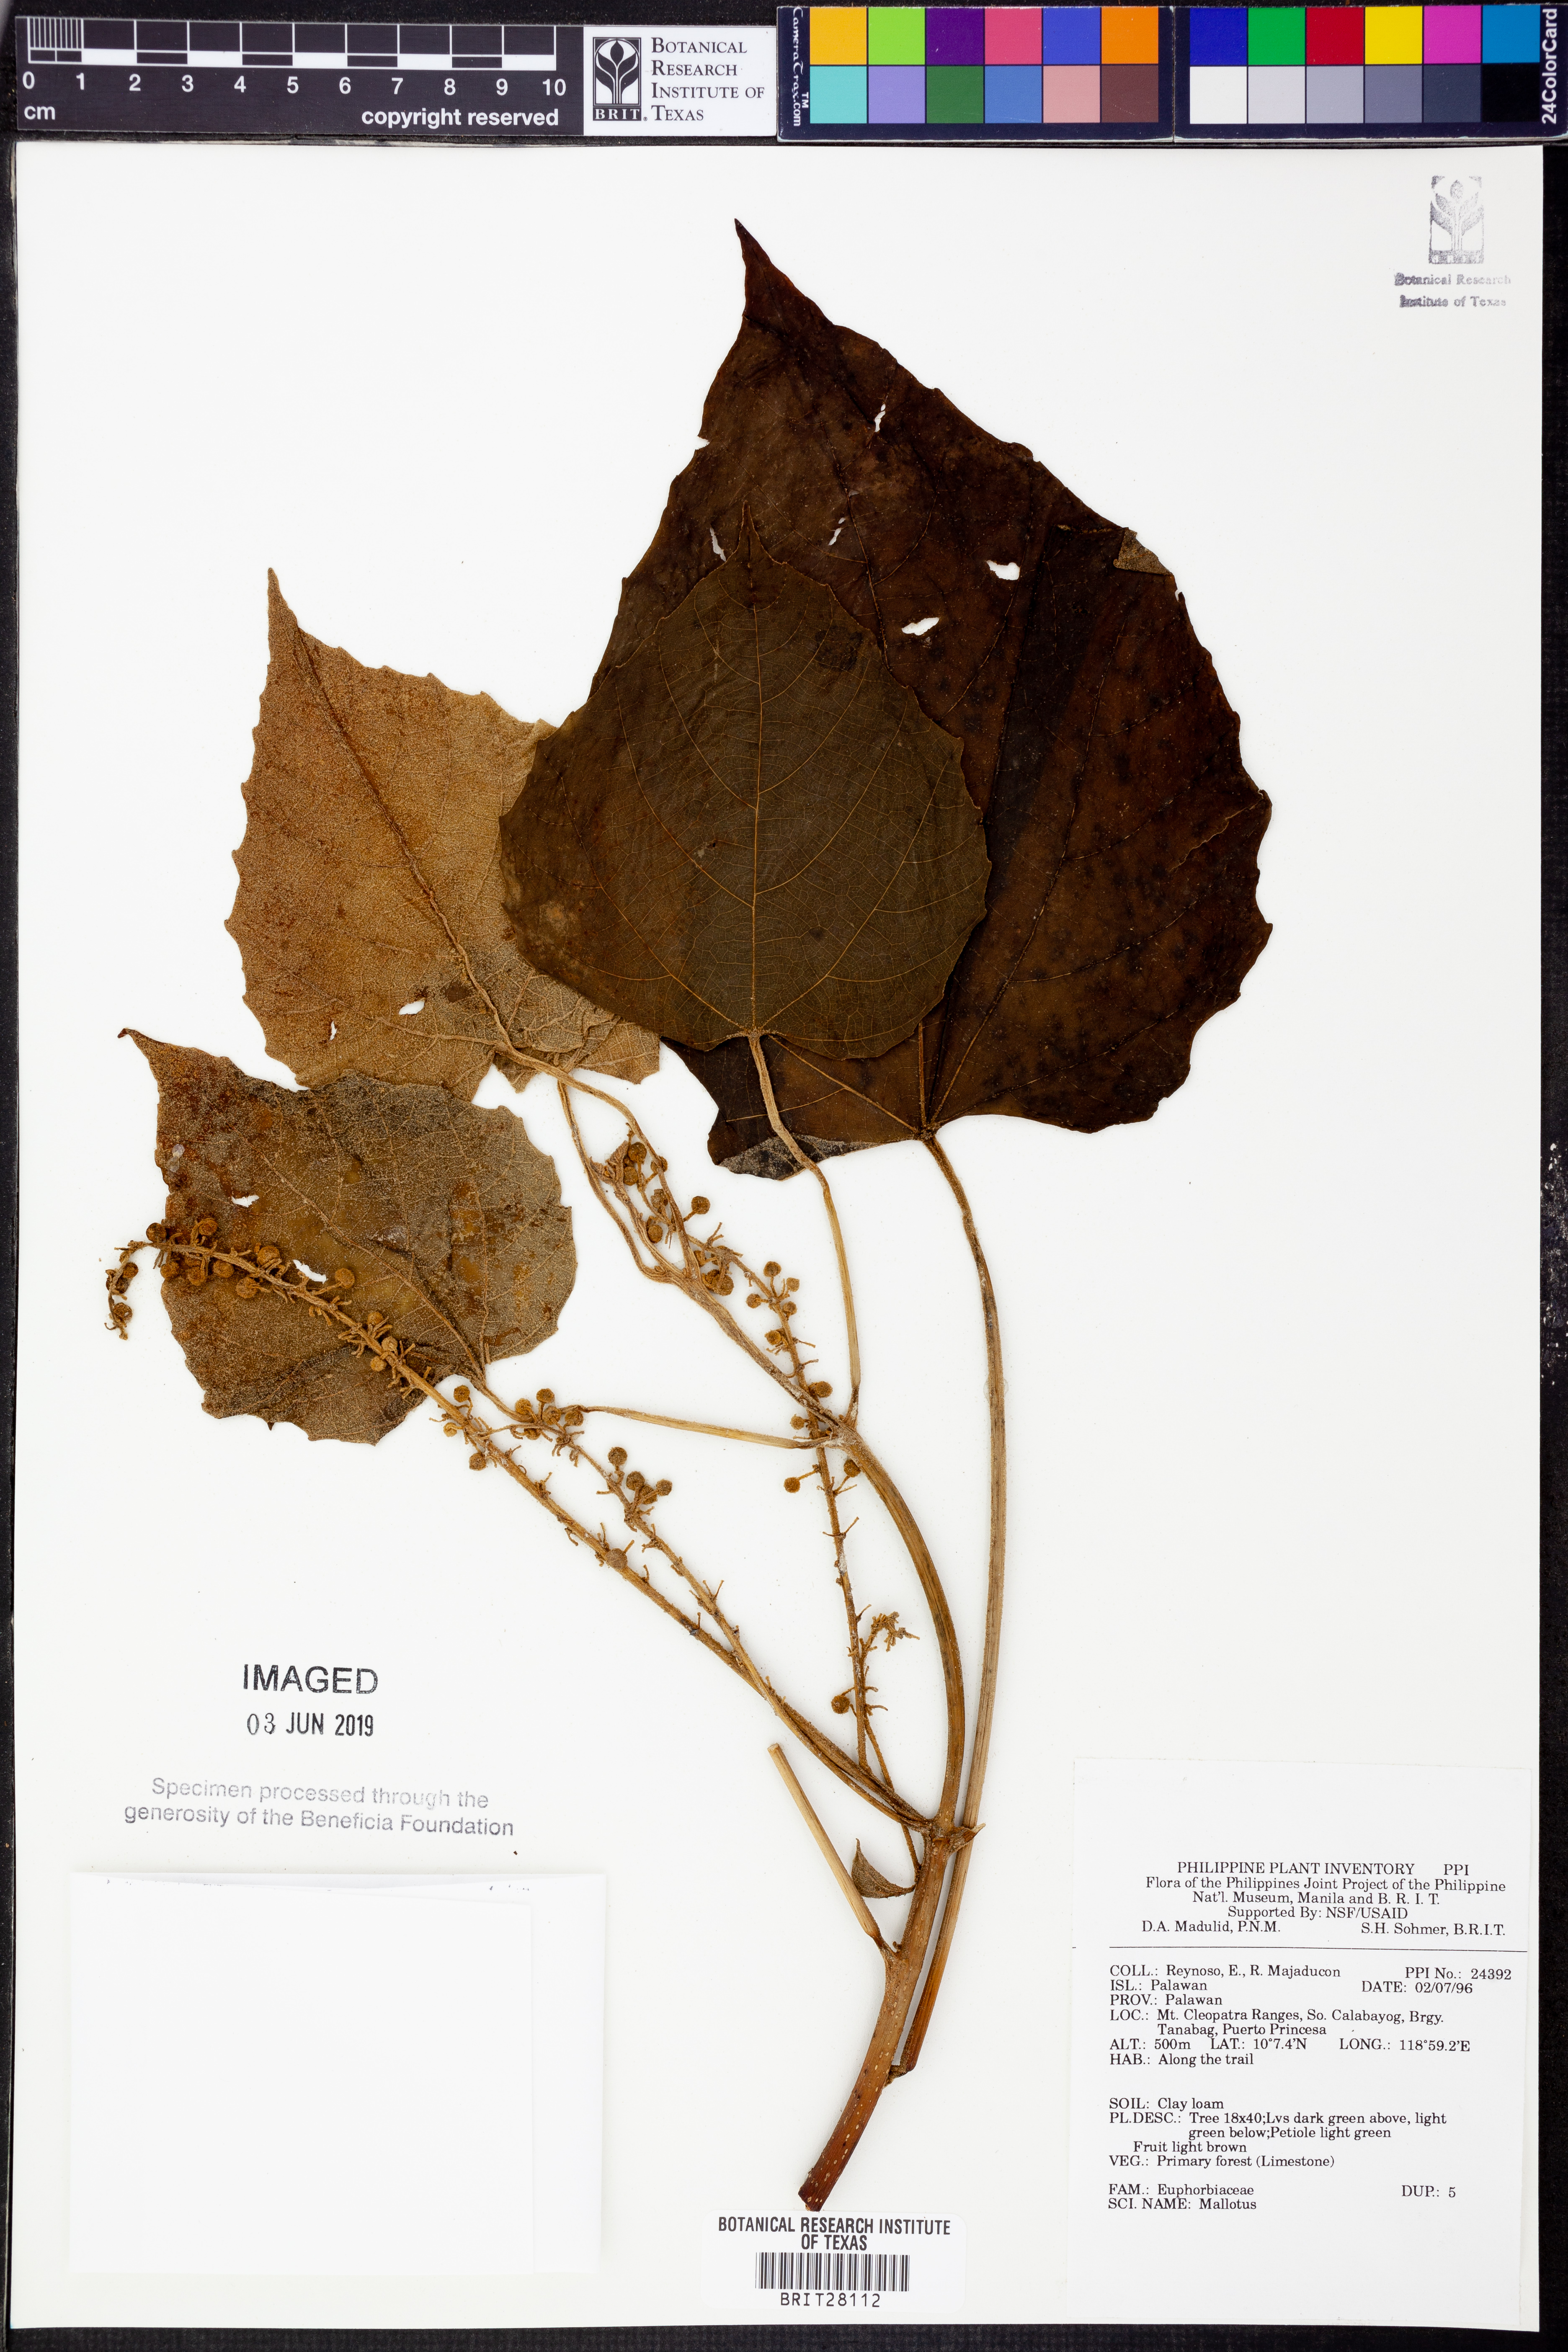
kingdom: Plantae
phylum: Tracheophyta
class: Magnoliopsida
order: Malpighiales
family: Euphorbiaceae
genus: Mallotus
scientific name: Mallotus
